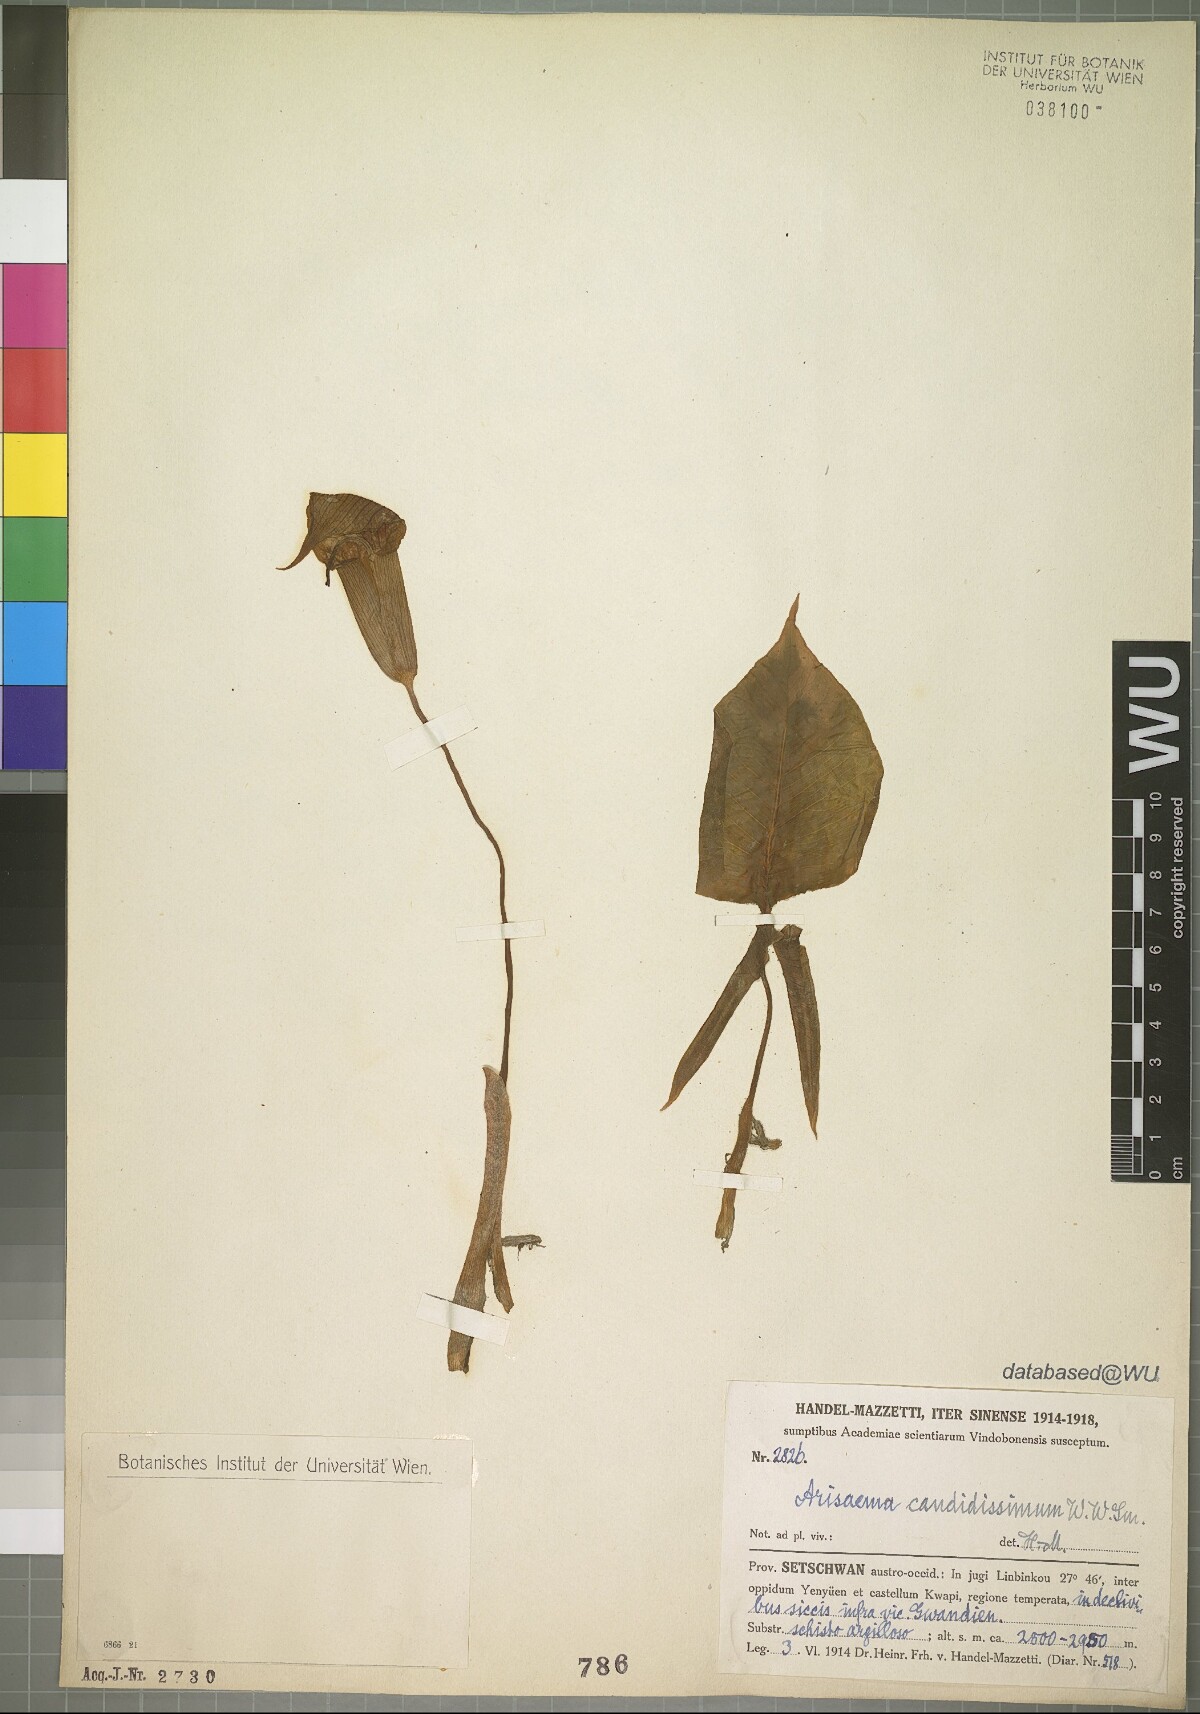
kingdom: Plantae
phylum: Tracheophyta
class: Liliopsida
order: Alismatales
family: Araceae
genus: Arisaema
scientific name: Arisaema candidissimum
